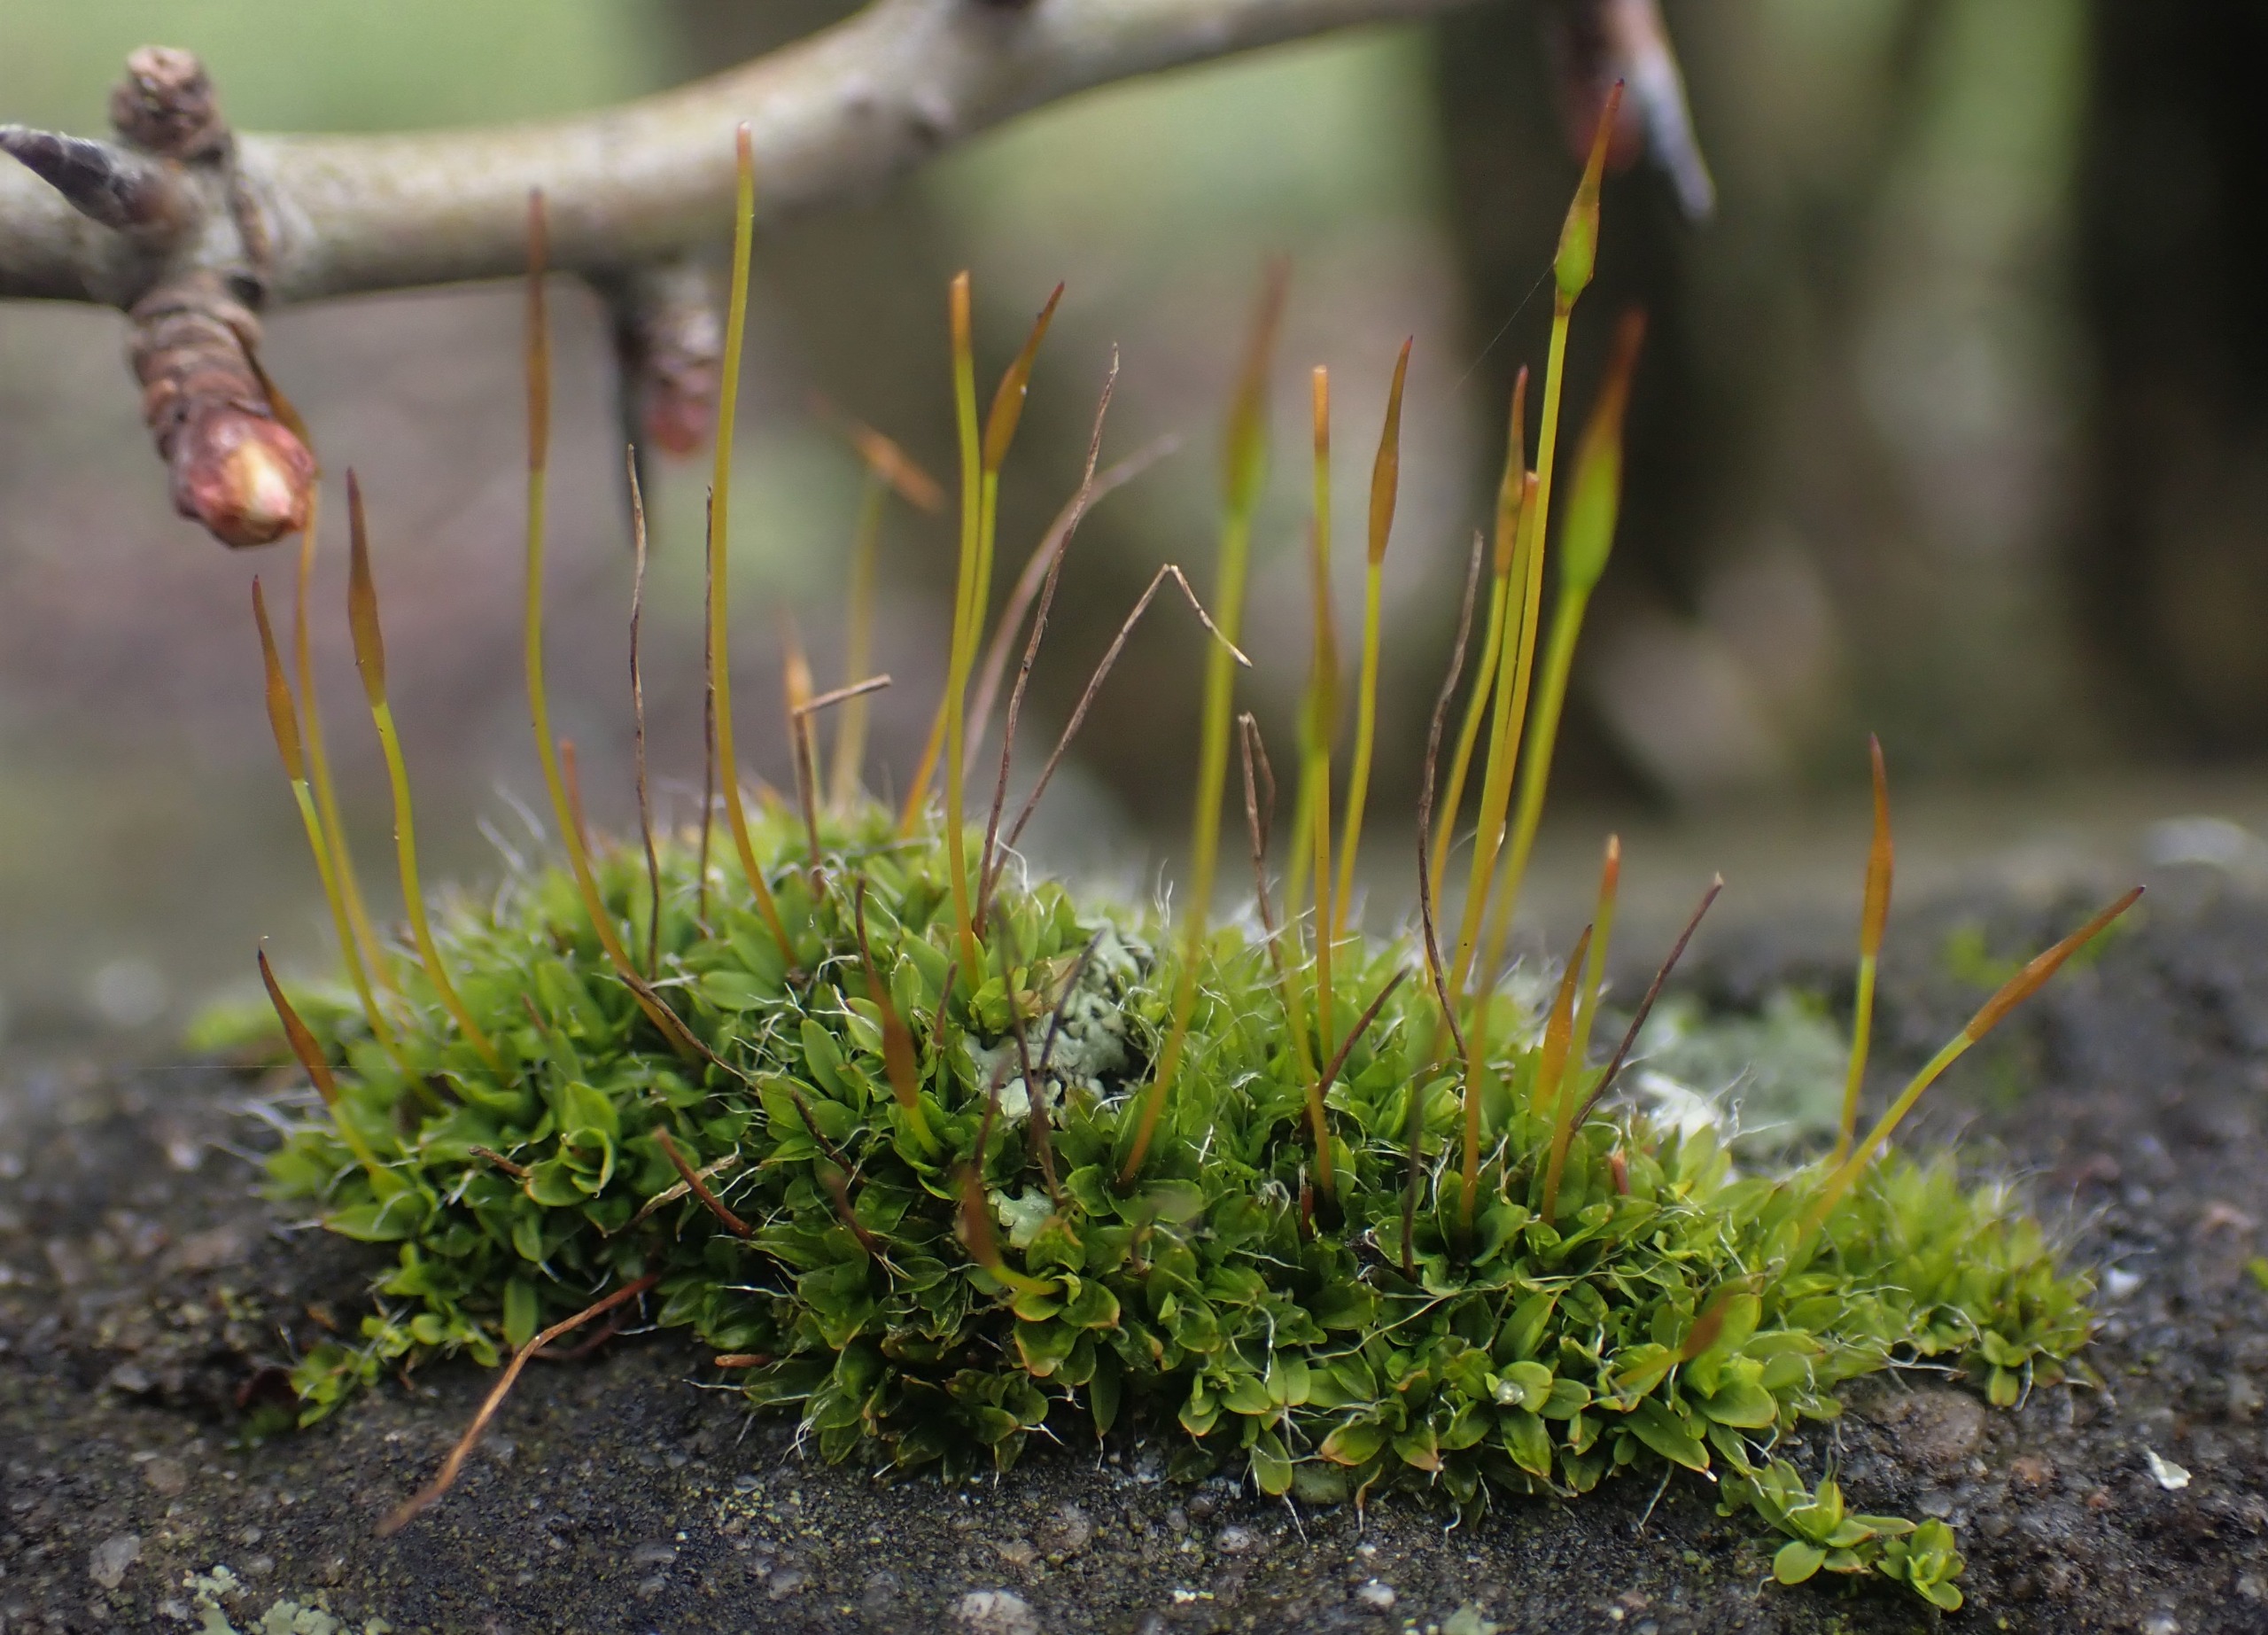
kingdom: Plantae
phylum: Bryophyta
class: Bryopsida
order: Pottiales
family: Pottiaceae
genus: Tortula
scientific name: Tortula muralis
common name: Mur-snotand
